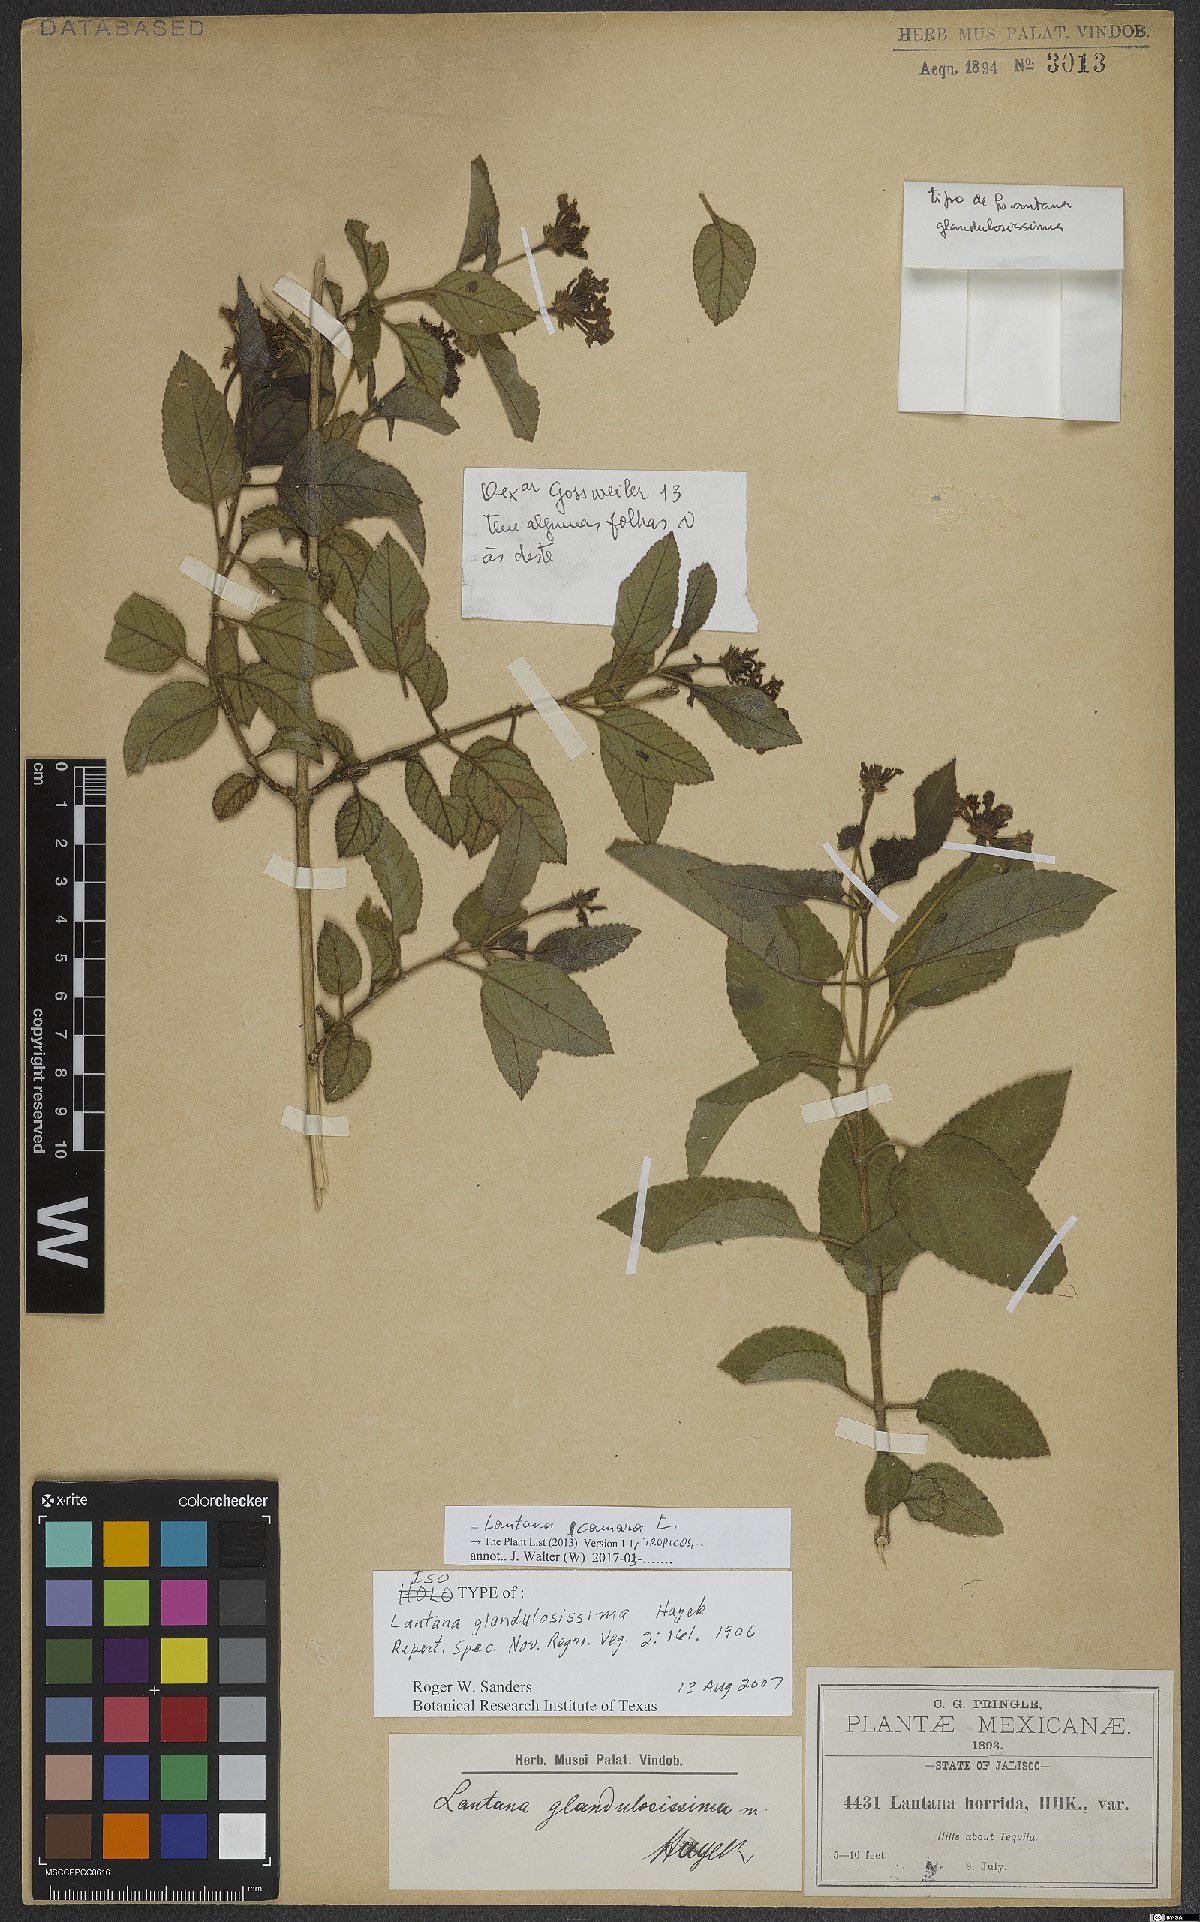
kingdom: Plantae
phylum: Tracheophyta
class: Magnoliopsida
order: Lamiales
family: Verbenaceae
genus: Lantana
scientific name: Lantana camara
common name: Lantana
